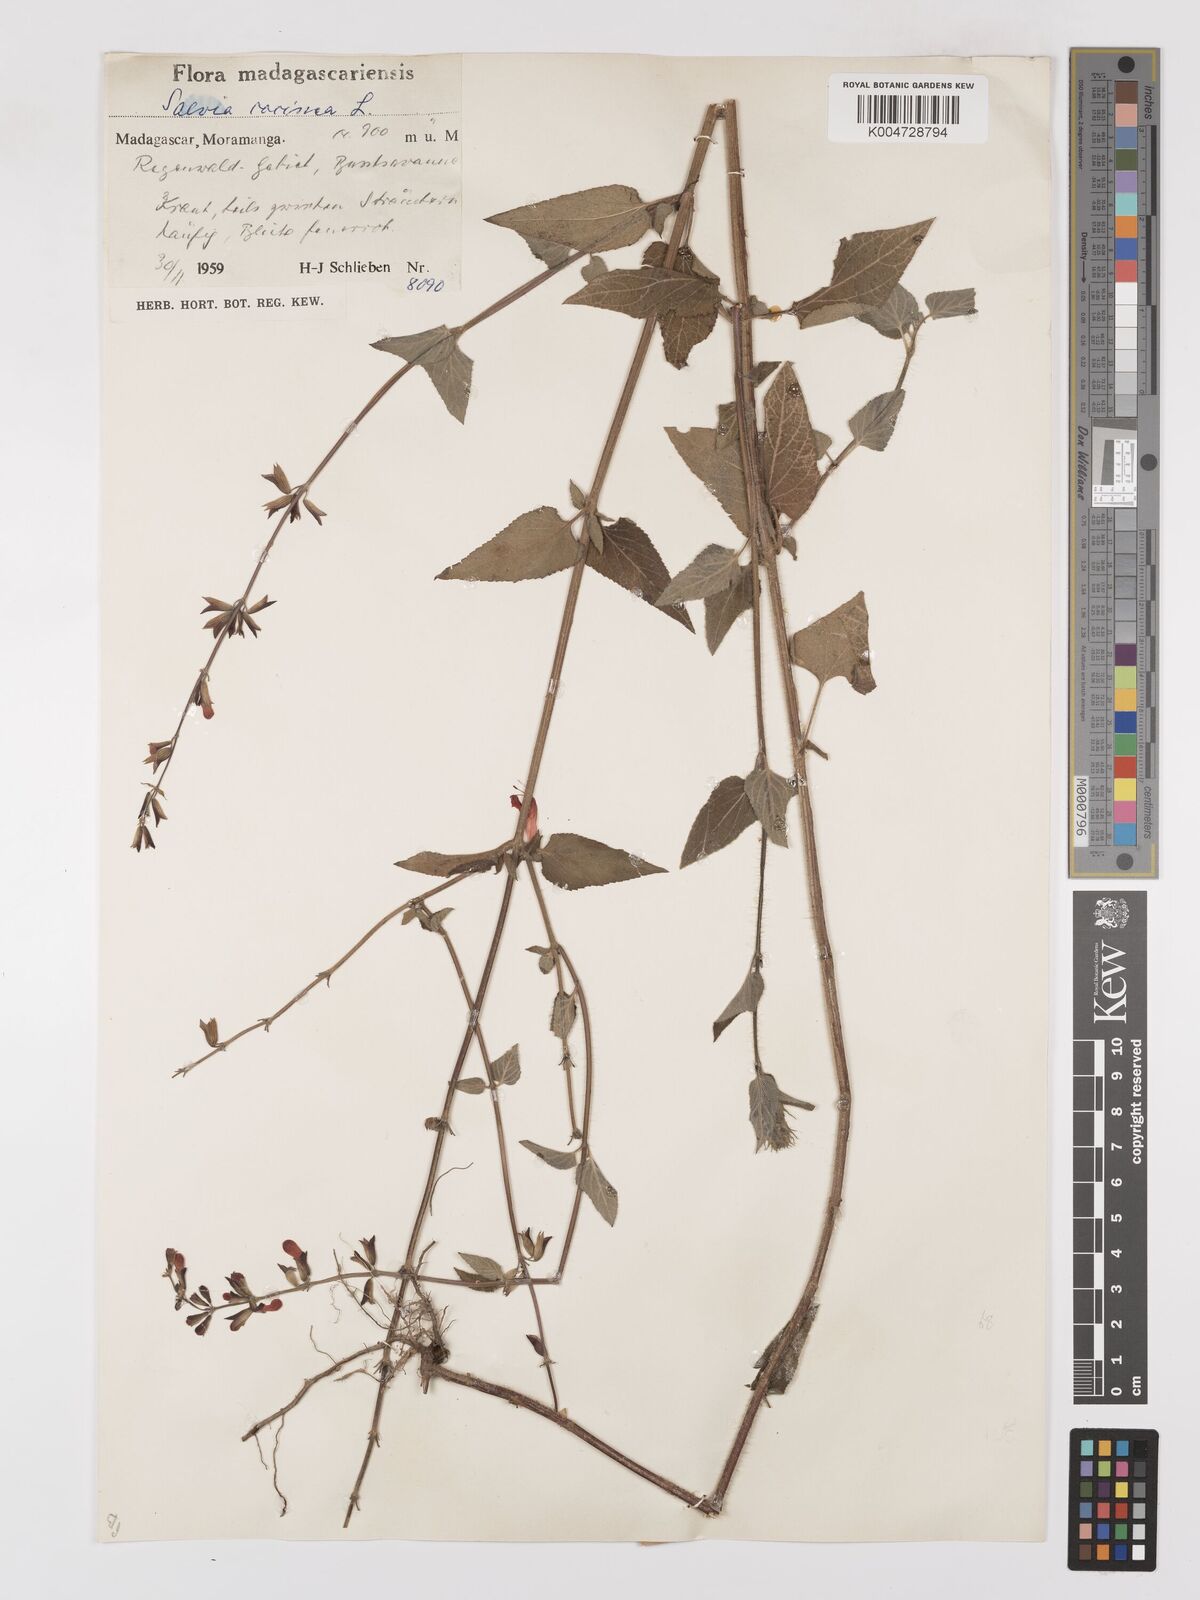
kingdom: Plantae
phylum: Tracheophyta
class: Magnoliopsida
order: Lamiales
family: Lamiaceae
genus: Salvia
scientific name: Salvia
